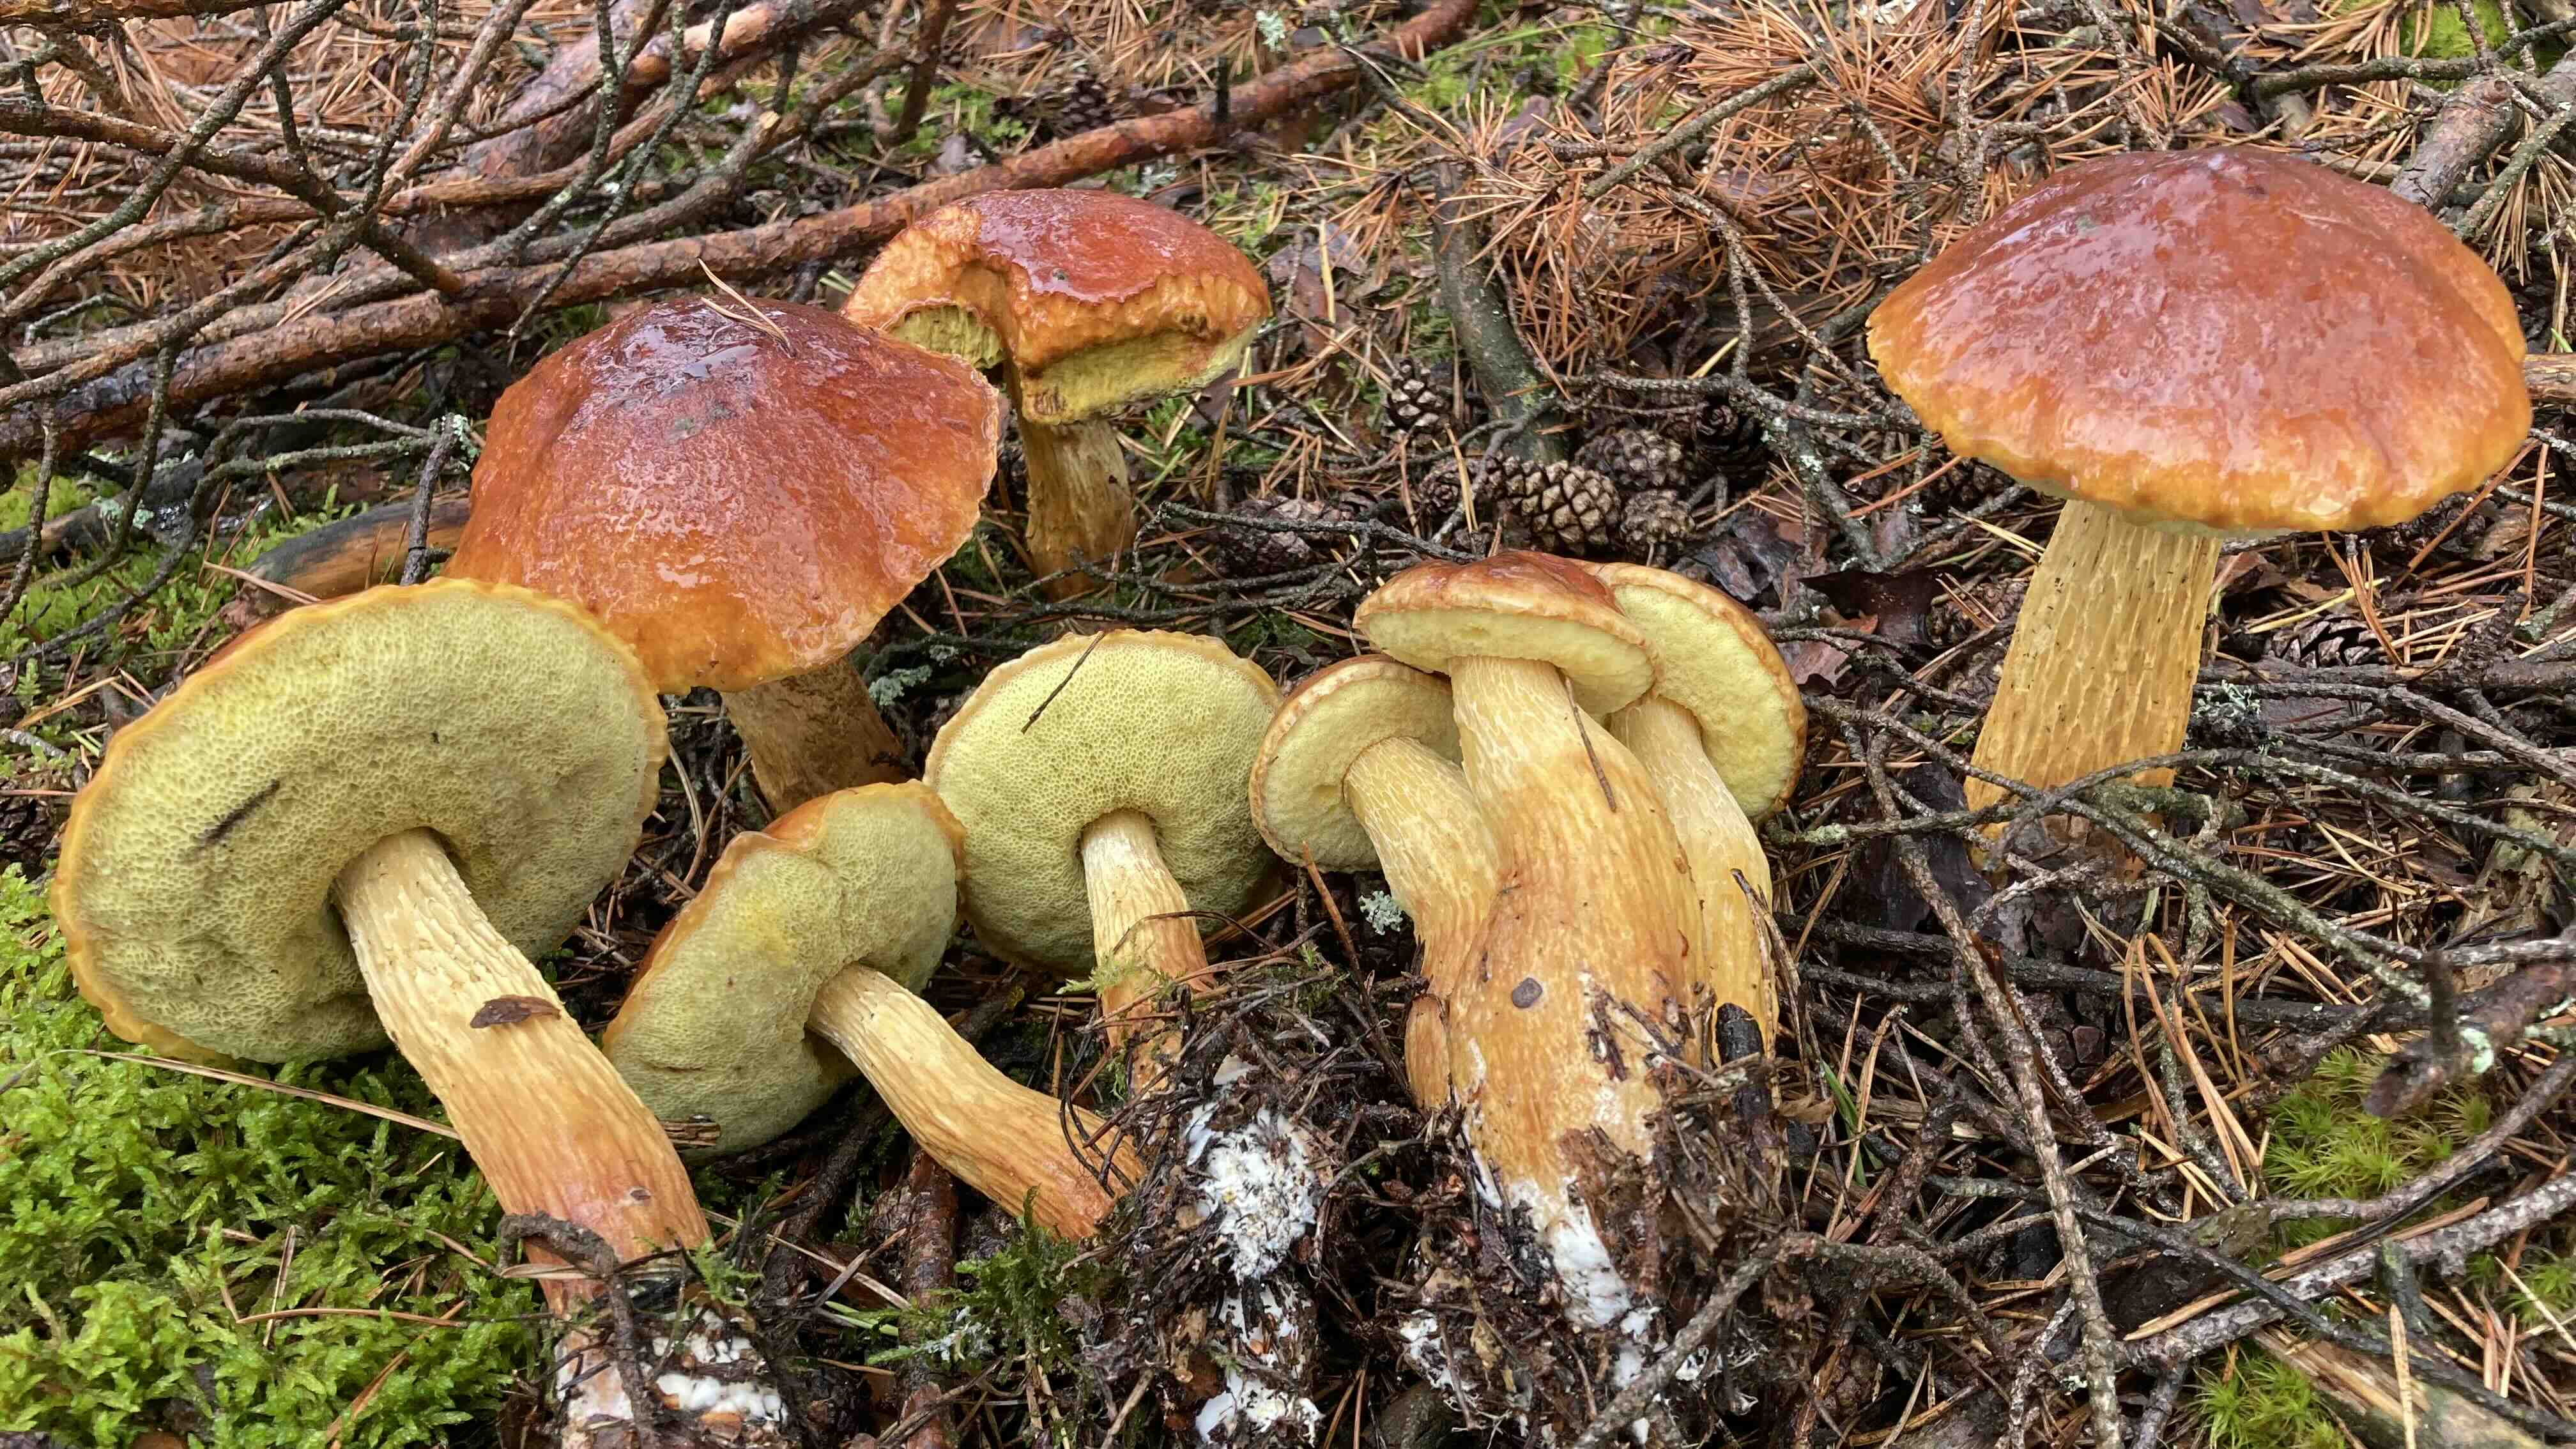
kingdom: Fungi
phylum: Basidiomycota
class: Agaricomycetes
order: Boletales
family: Boletaceae
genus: Aureoboletus
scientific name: Aureoboletus projectellus
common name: ribbestokket rørhat
